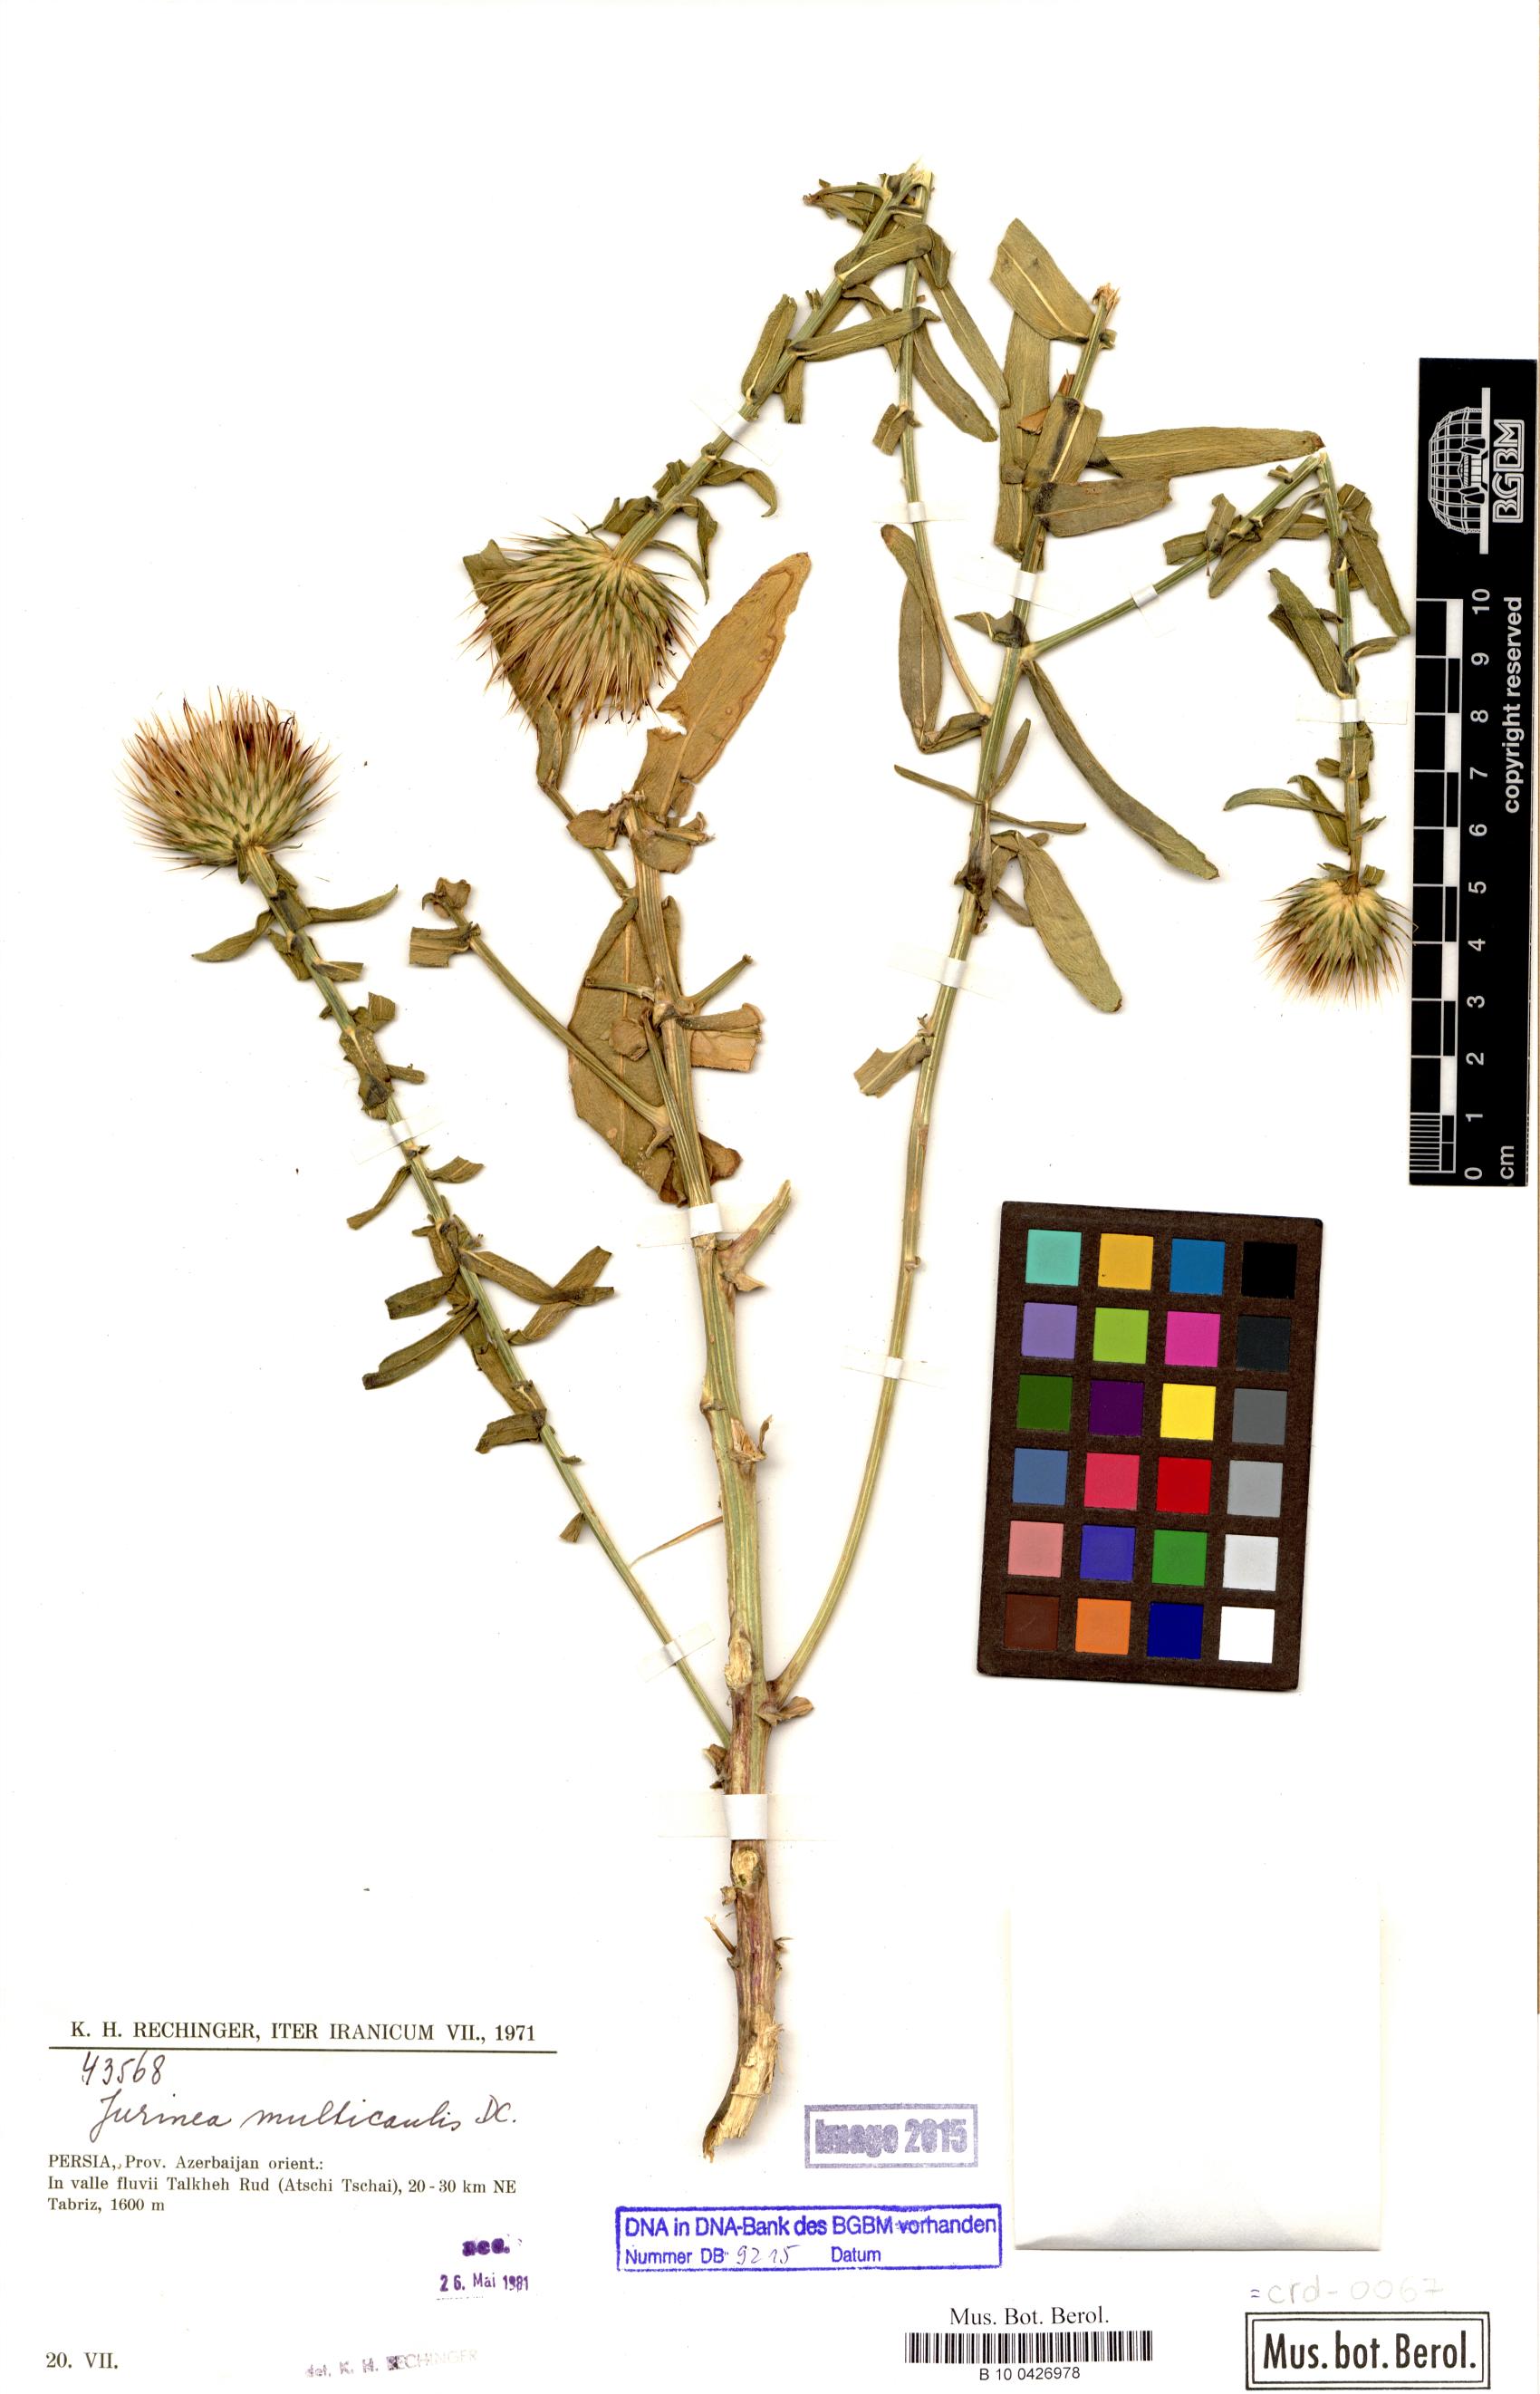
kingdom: Plantae
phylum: Tracheophyta
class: Magnoliopsida
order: Asterales
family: Asteraceae
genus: Jurinea
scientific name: Jurinea multicaulis
